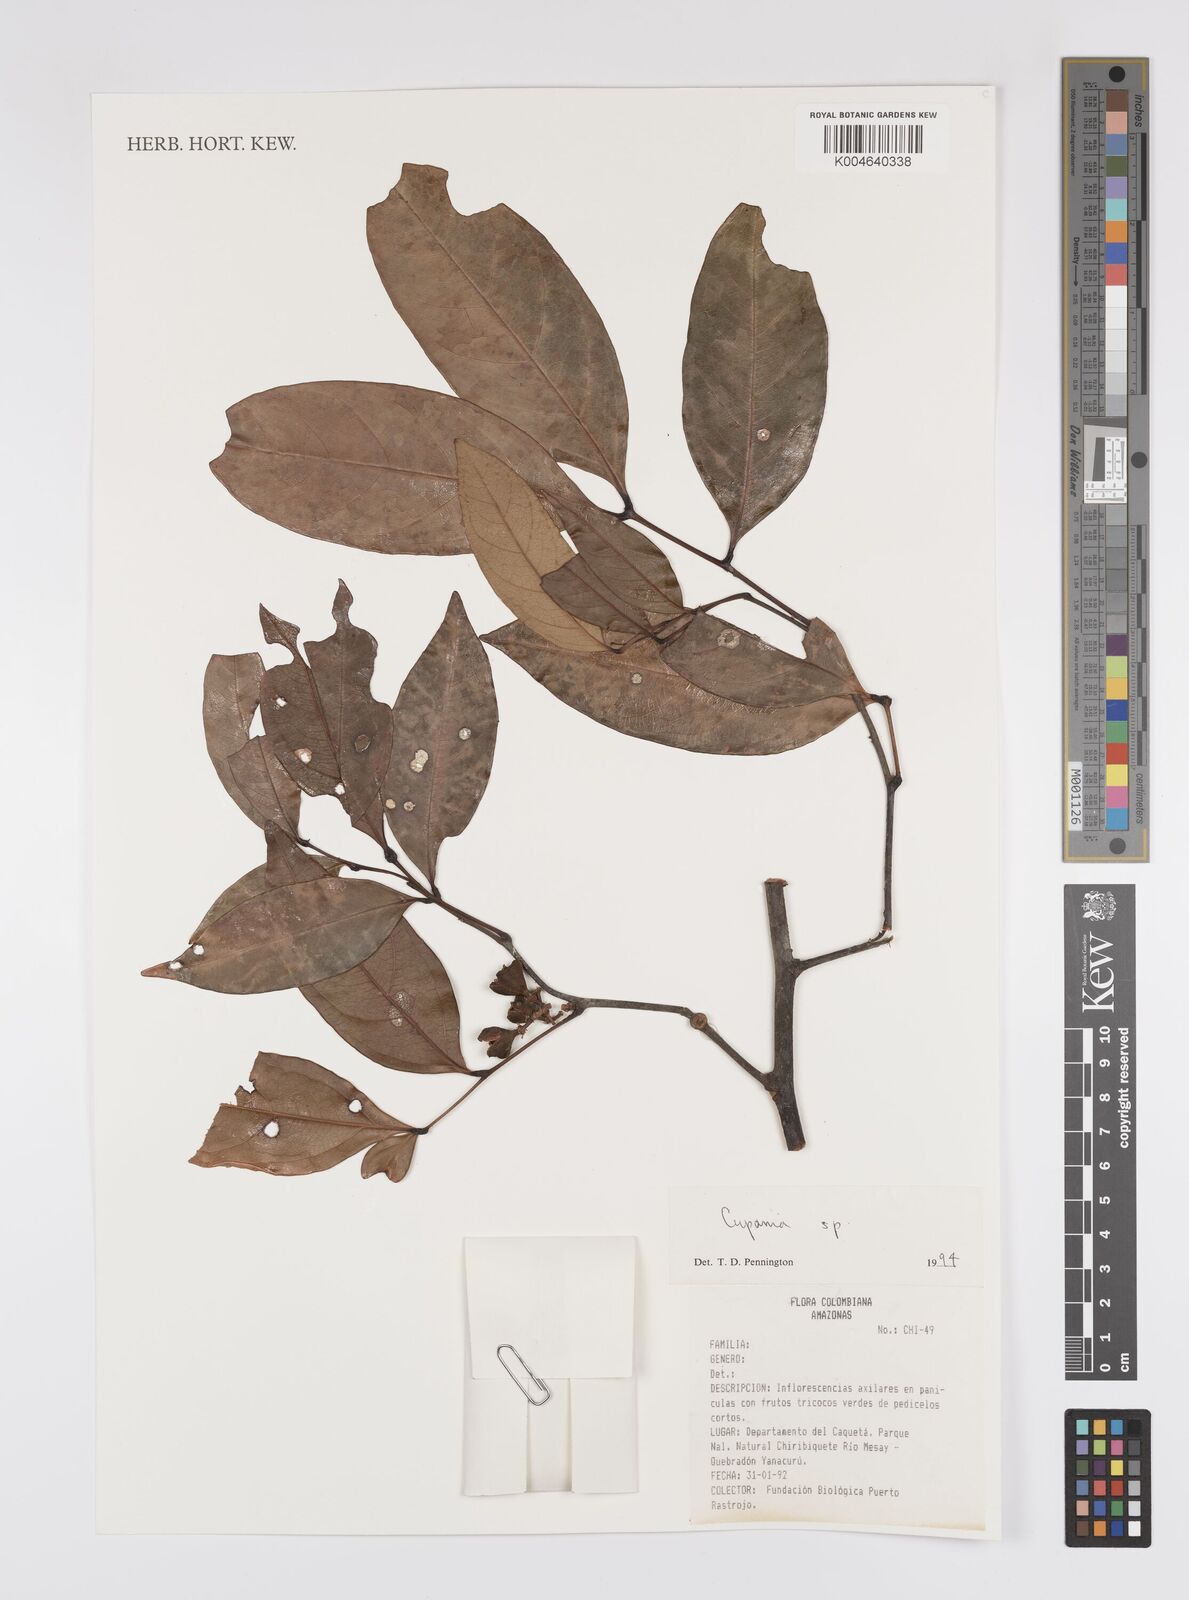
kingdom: Plantae
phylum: Tracheophyta
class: Magnoliopsida
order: Sapindales
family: Sapindaceae
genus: Cupania
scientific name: Cupania
